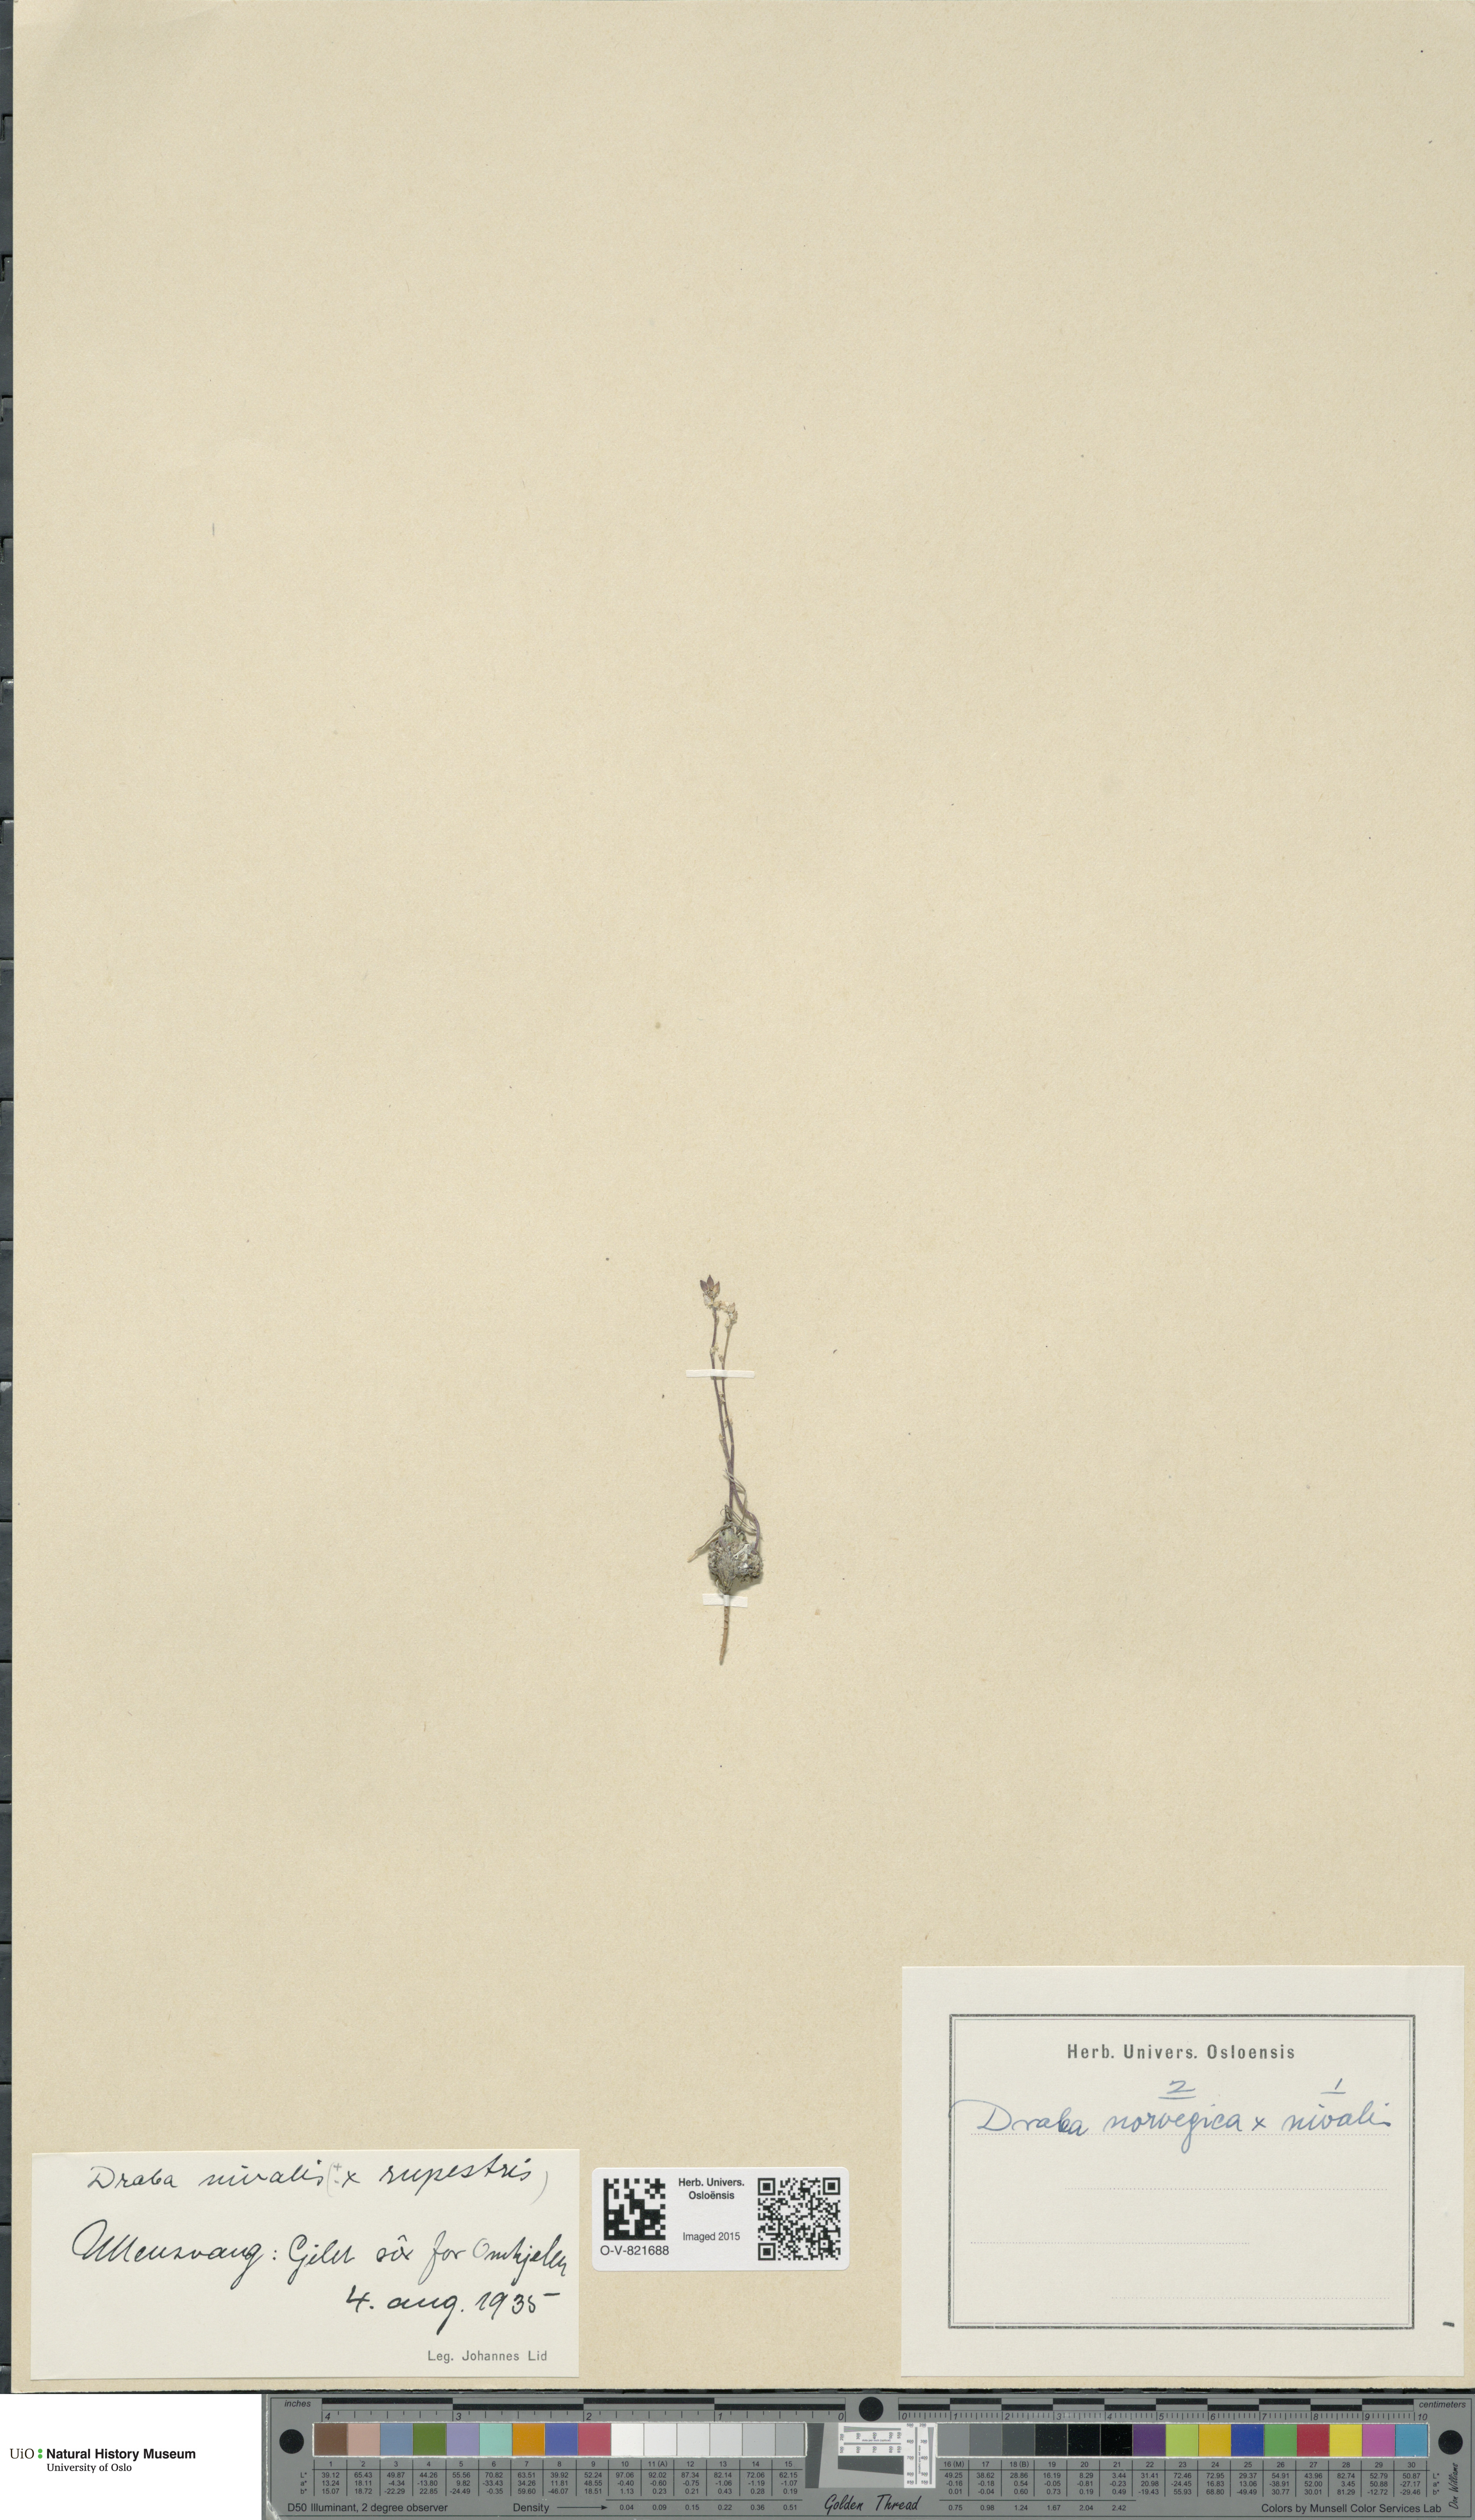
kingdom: Plantae
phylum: Tracheophyta
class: Magnoliopsida
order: Brassicales
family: Brassicaceae
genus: Draba
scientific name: Draba
